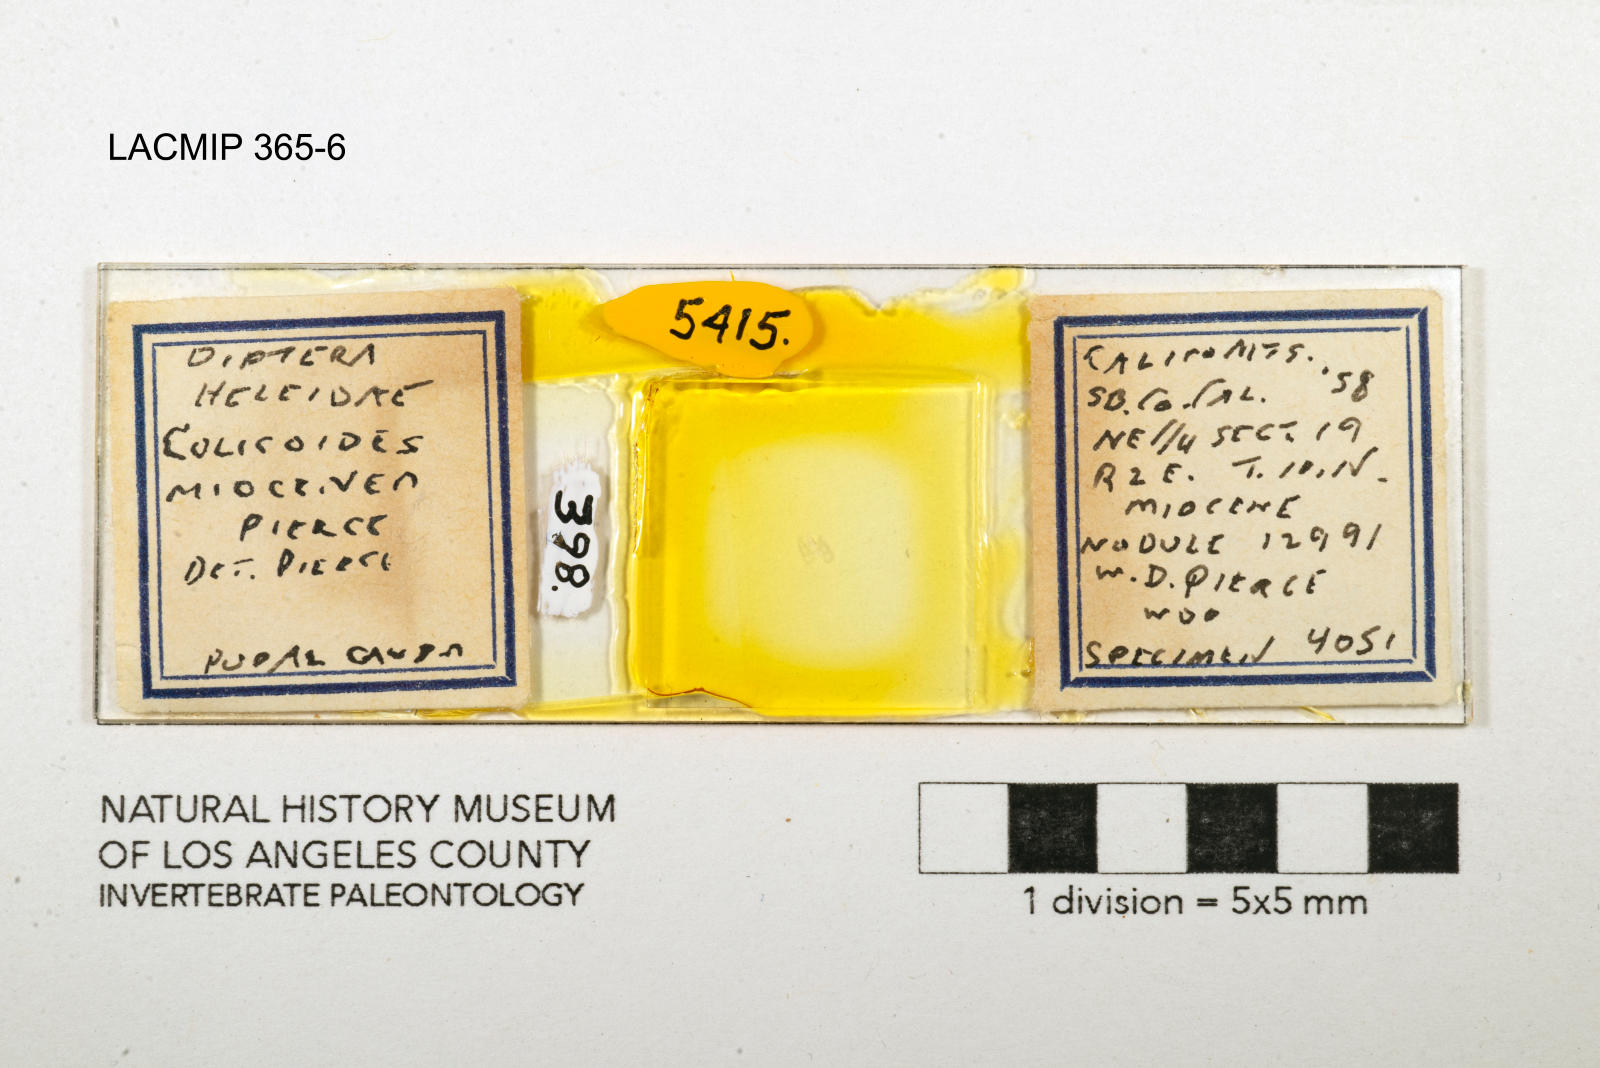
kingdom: Animalia
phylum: Arthropoda
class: Insecta
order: Diptera
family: Ceratopogonidae
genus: Culicoides
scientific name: Culicoides miocenicus
